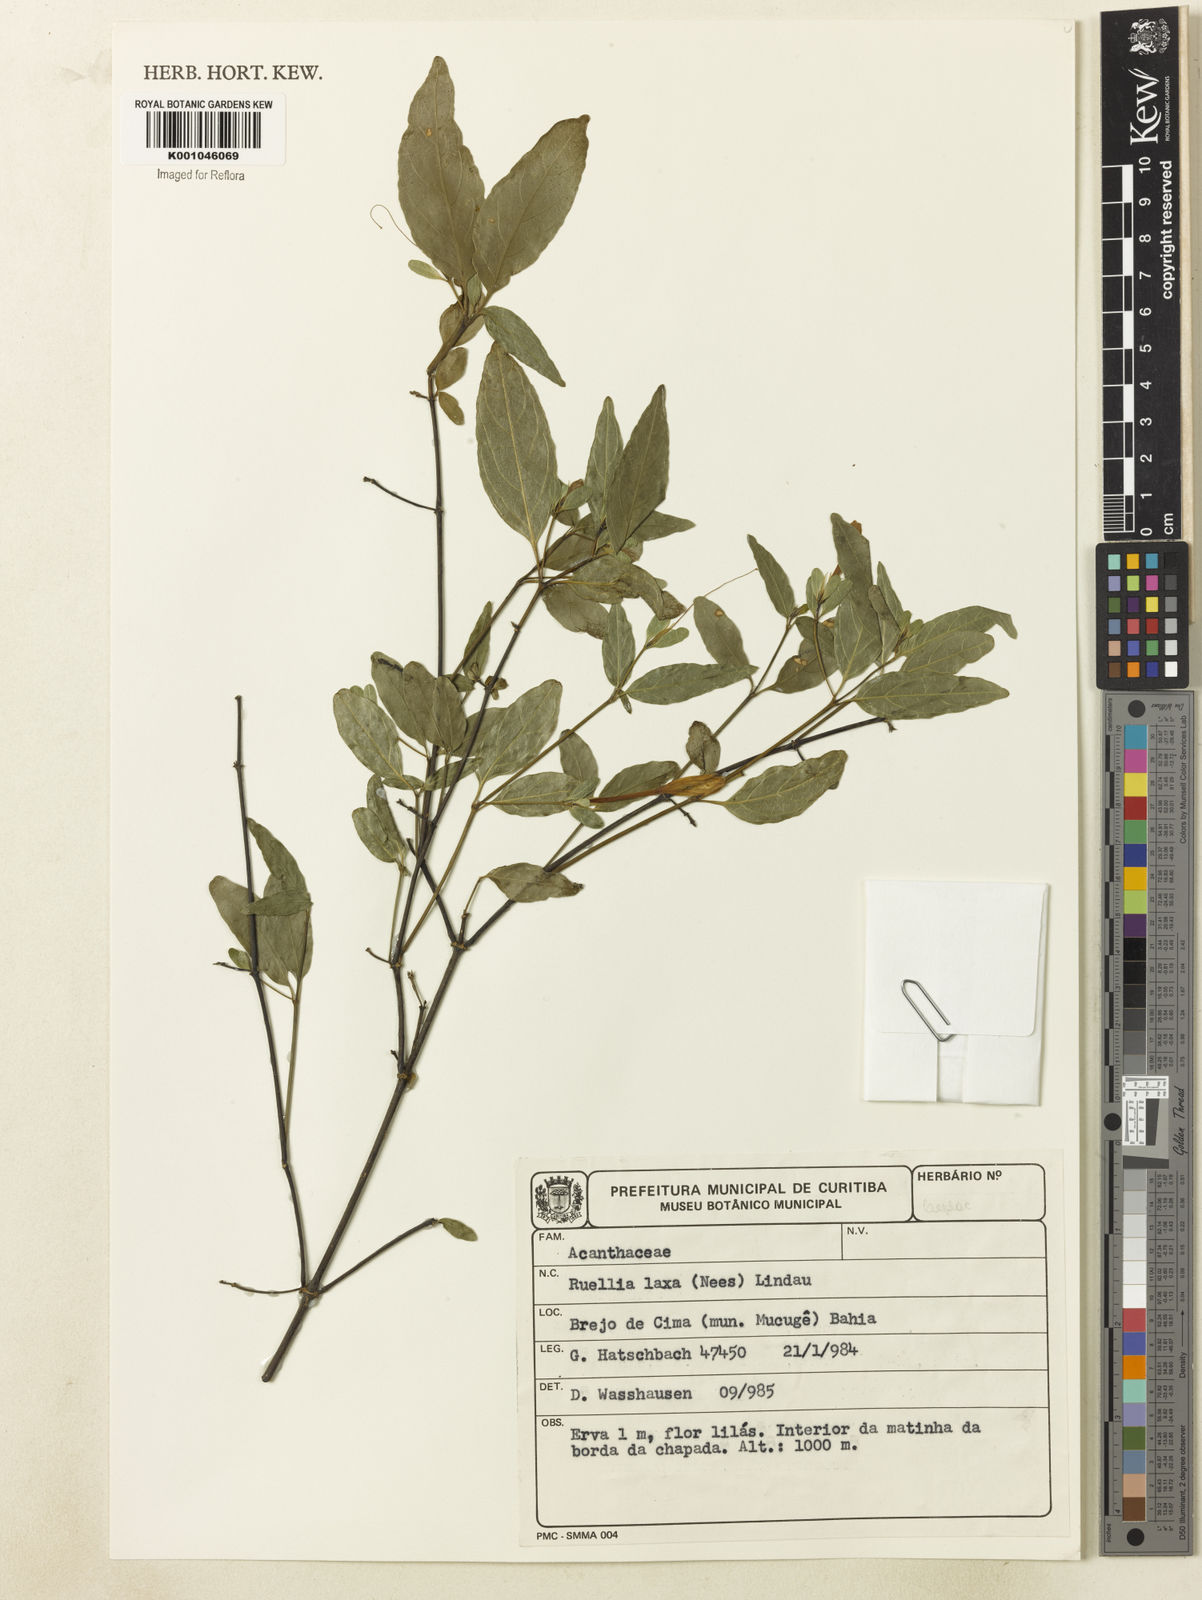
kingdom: Plantae
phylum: Tracheophyta
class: Magnoliopsida
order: Lamiales
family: Acanthaceae
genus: Ruellia
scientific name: Ruellia laxa
